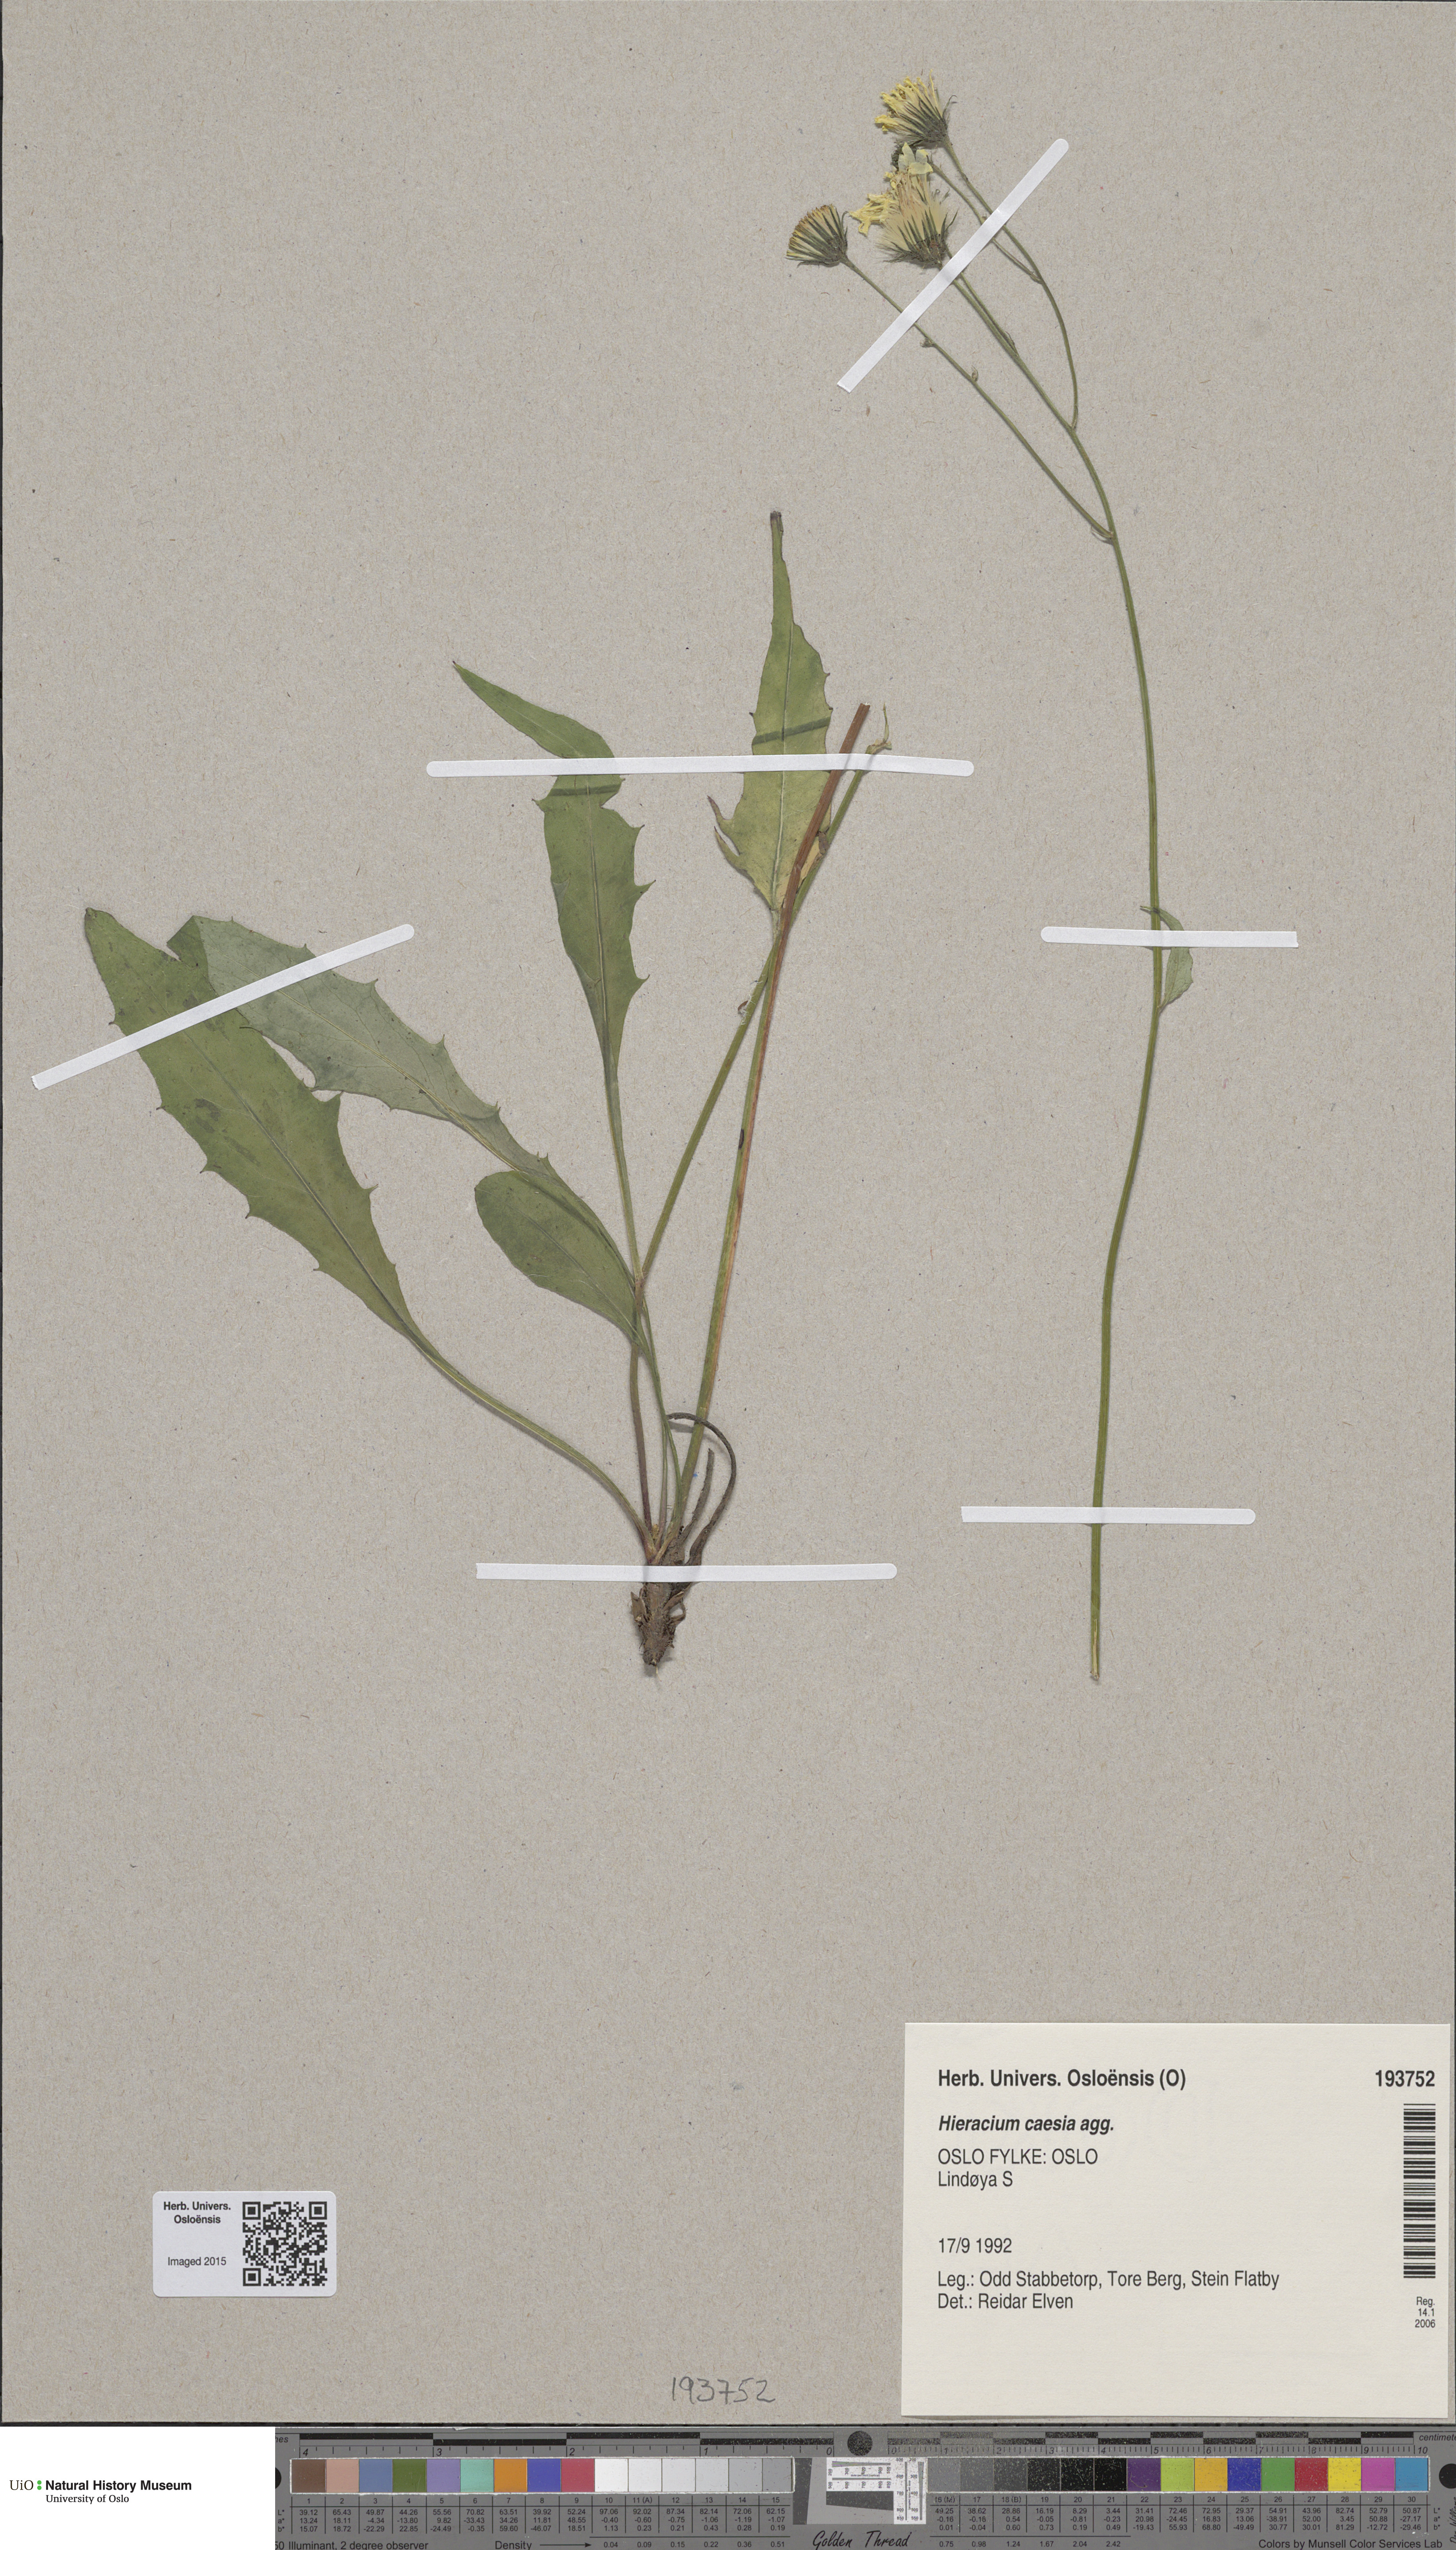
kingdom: Plantae
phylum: Tracheophyta
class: Magnoliopsida
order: Asterales
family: Asteraceae
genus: Hieracium
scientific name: Hieracium caesium
